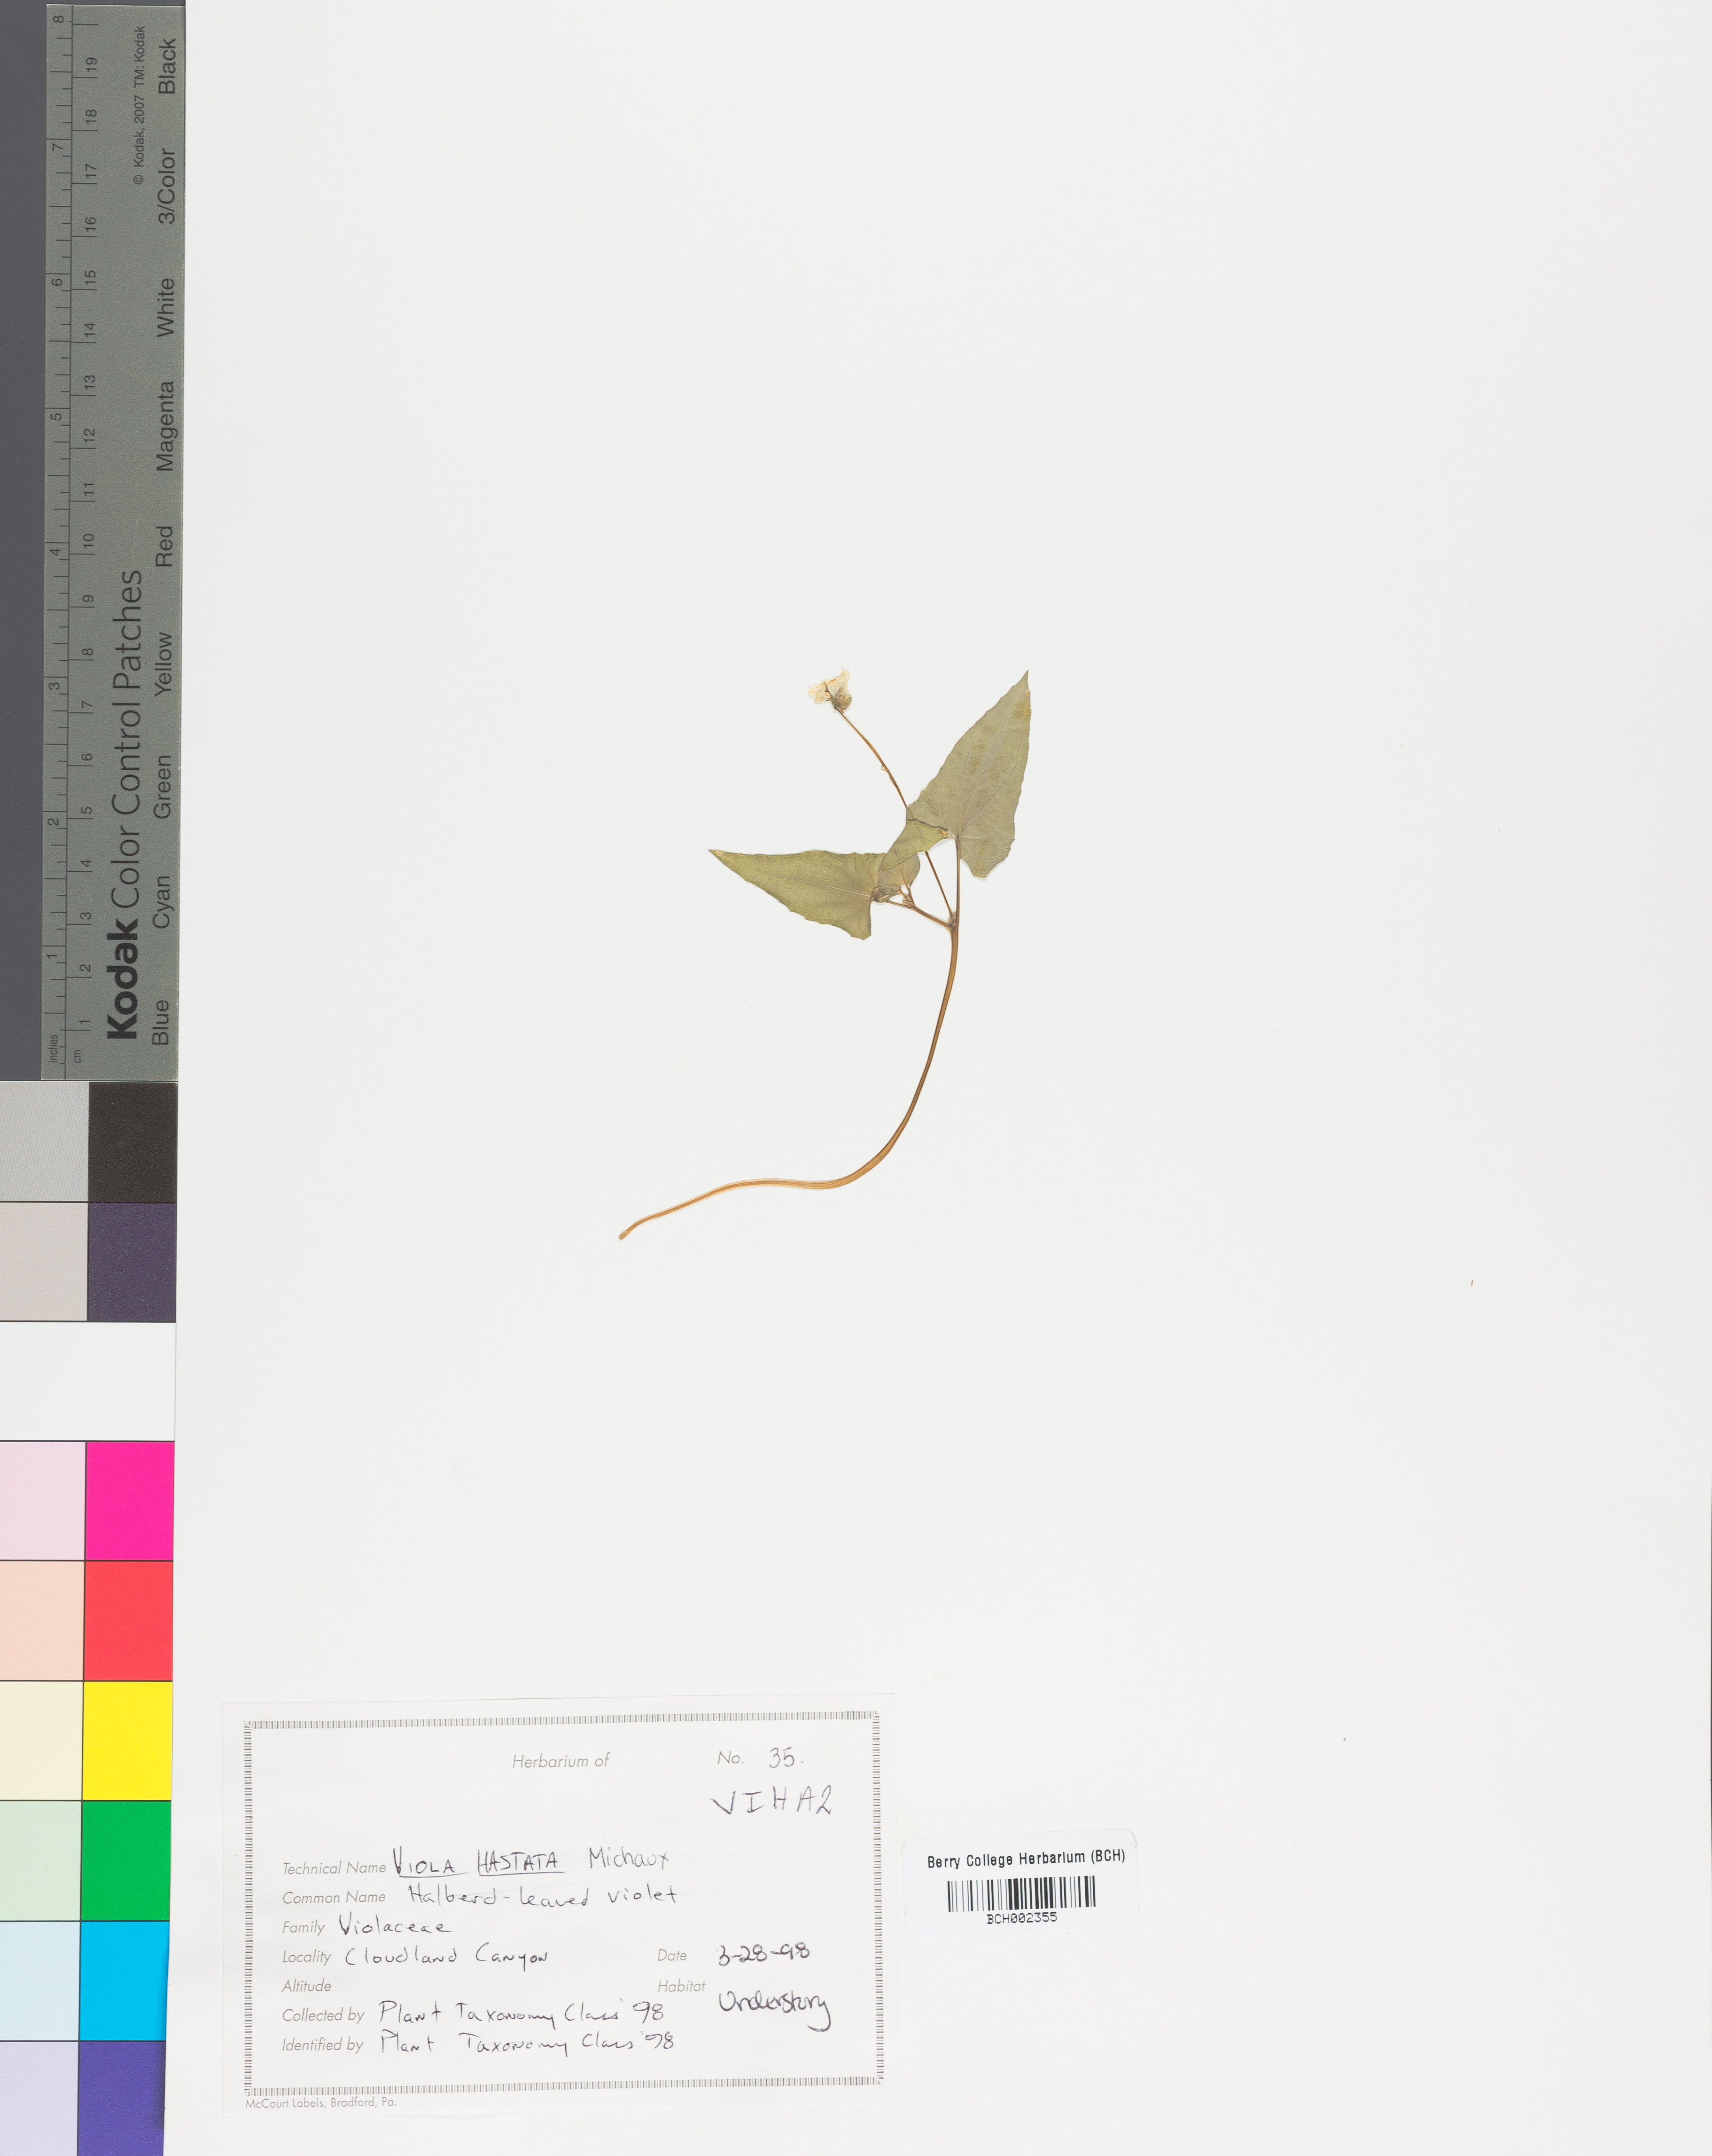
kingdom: Plantae
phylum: Tracheophyta
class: Magnoliopsida
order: Malpighiales
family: Violaceae
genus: Viola
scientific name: Viola hastata
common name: Spear-leaf violet
